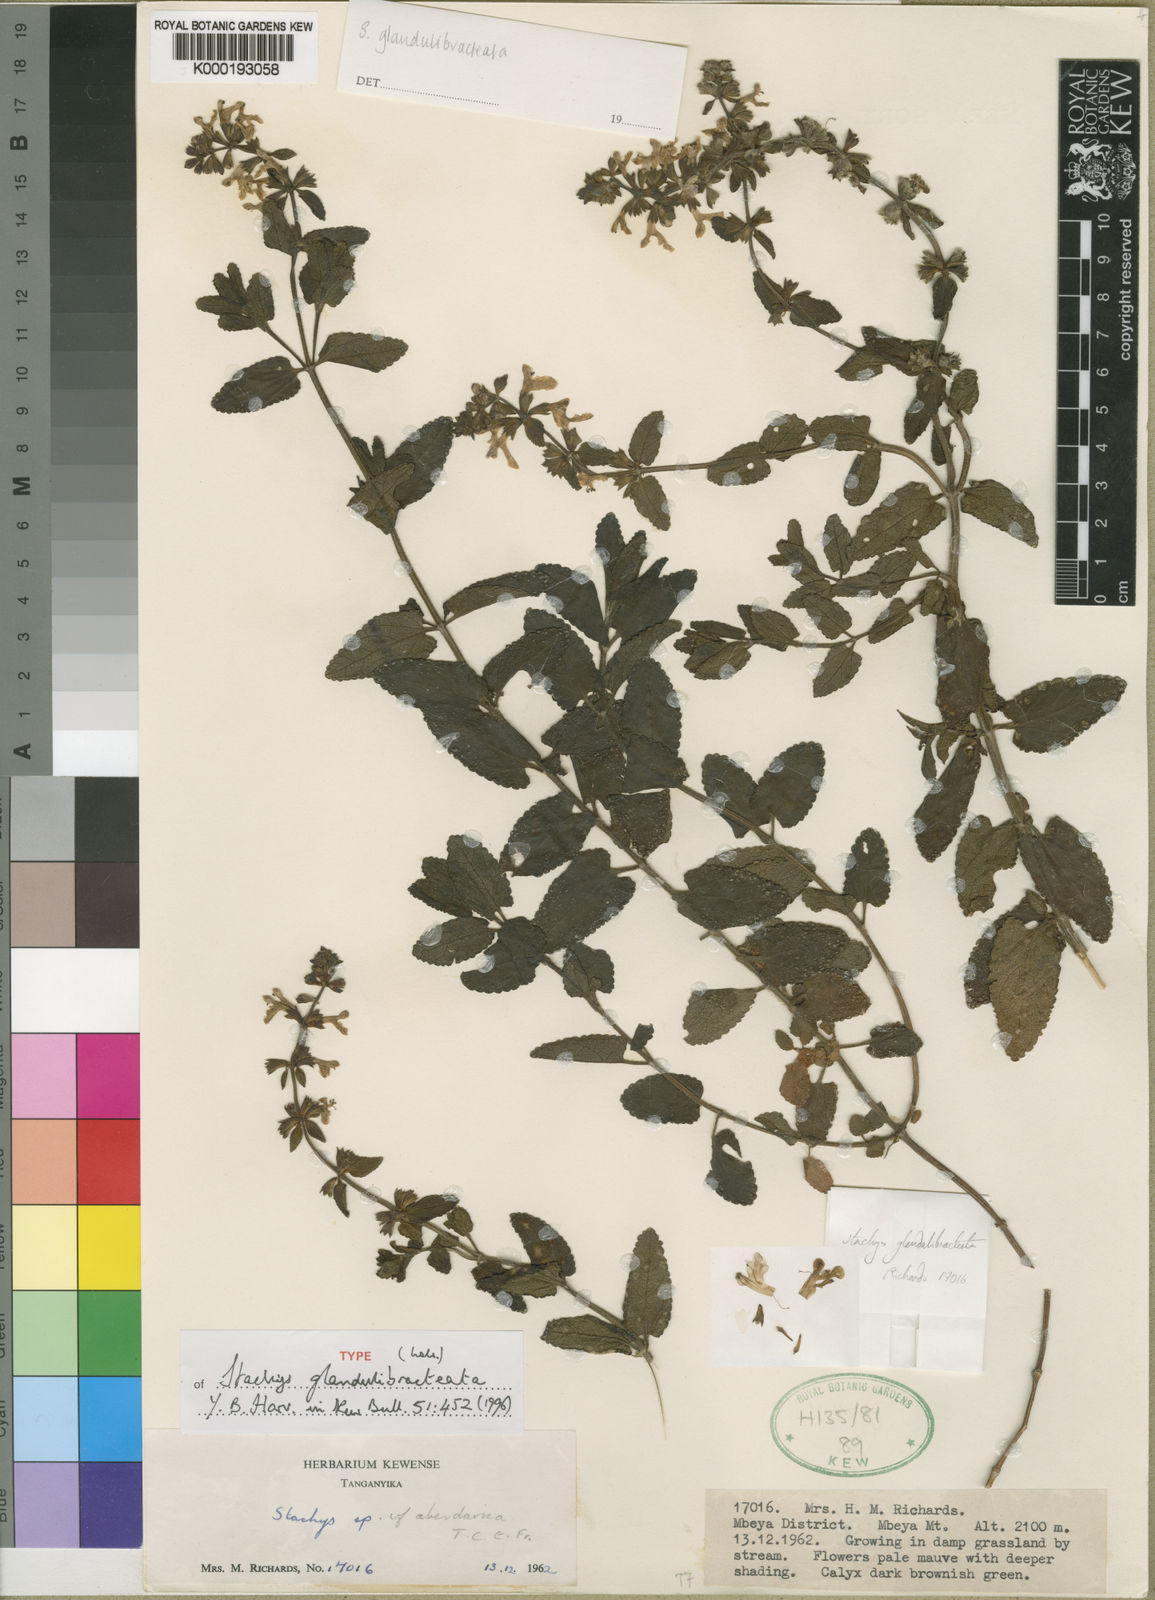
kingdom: Plantae
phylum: Tracheophyta
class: Magnoliopsida
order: Lamiales
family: Lamiaceae
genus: Stachys
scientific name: Stachys glandulibracteata
